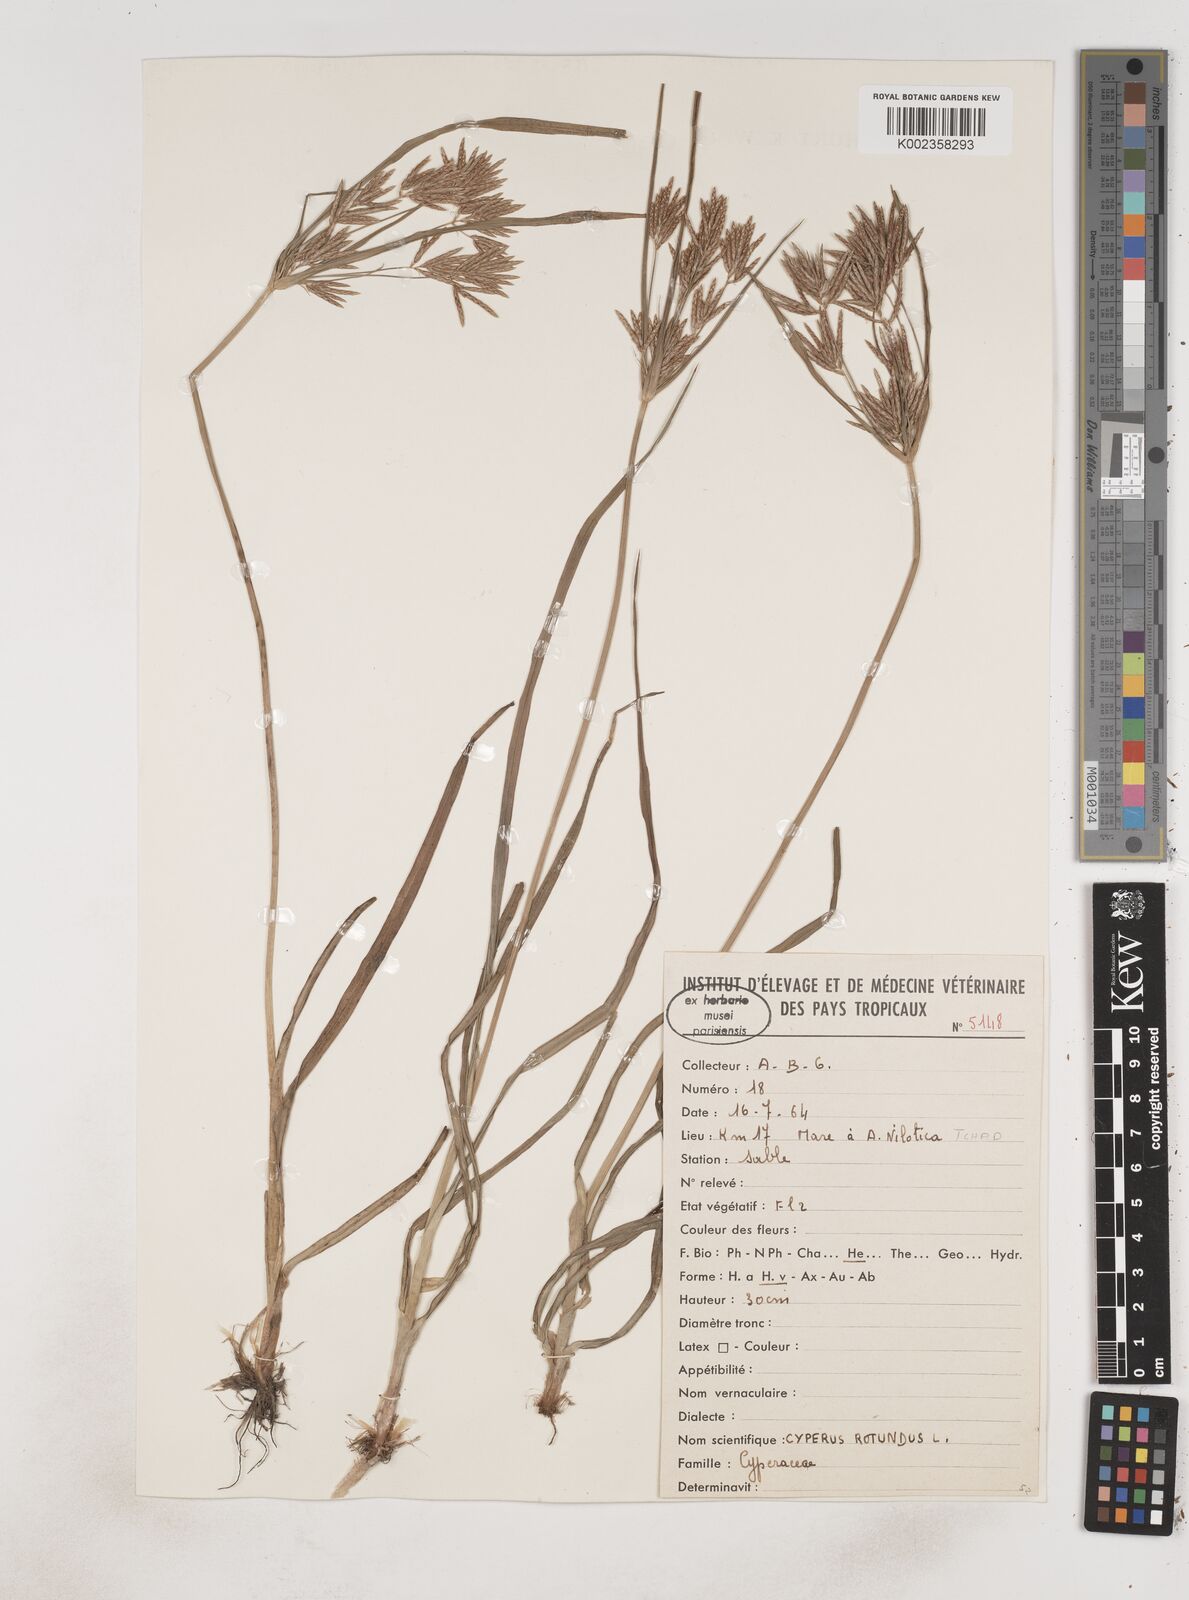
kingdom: Plantae
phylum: Tracheophyta
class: Liliopsida
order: Poales
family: Cyperaceae
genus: Cyperus
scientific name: Cyperus rotundus
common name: Nutgrass
